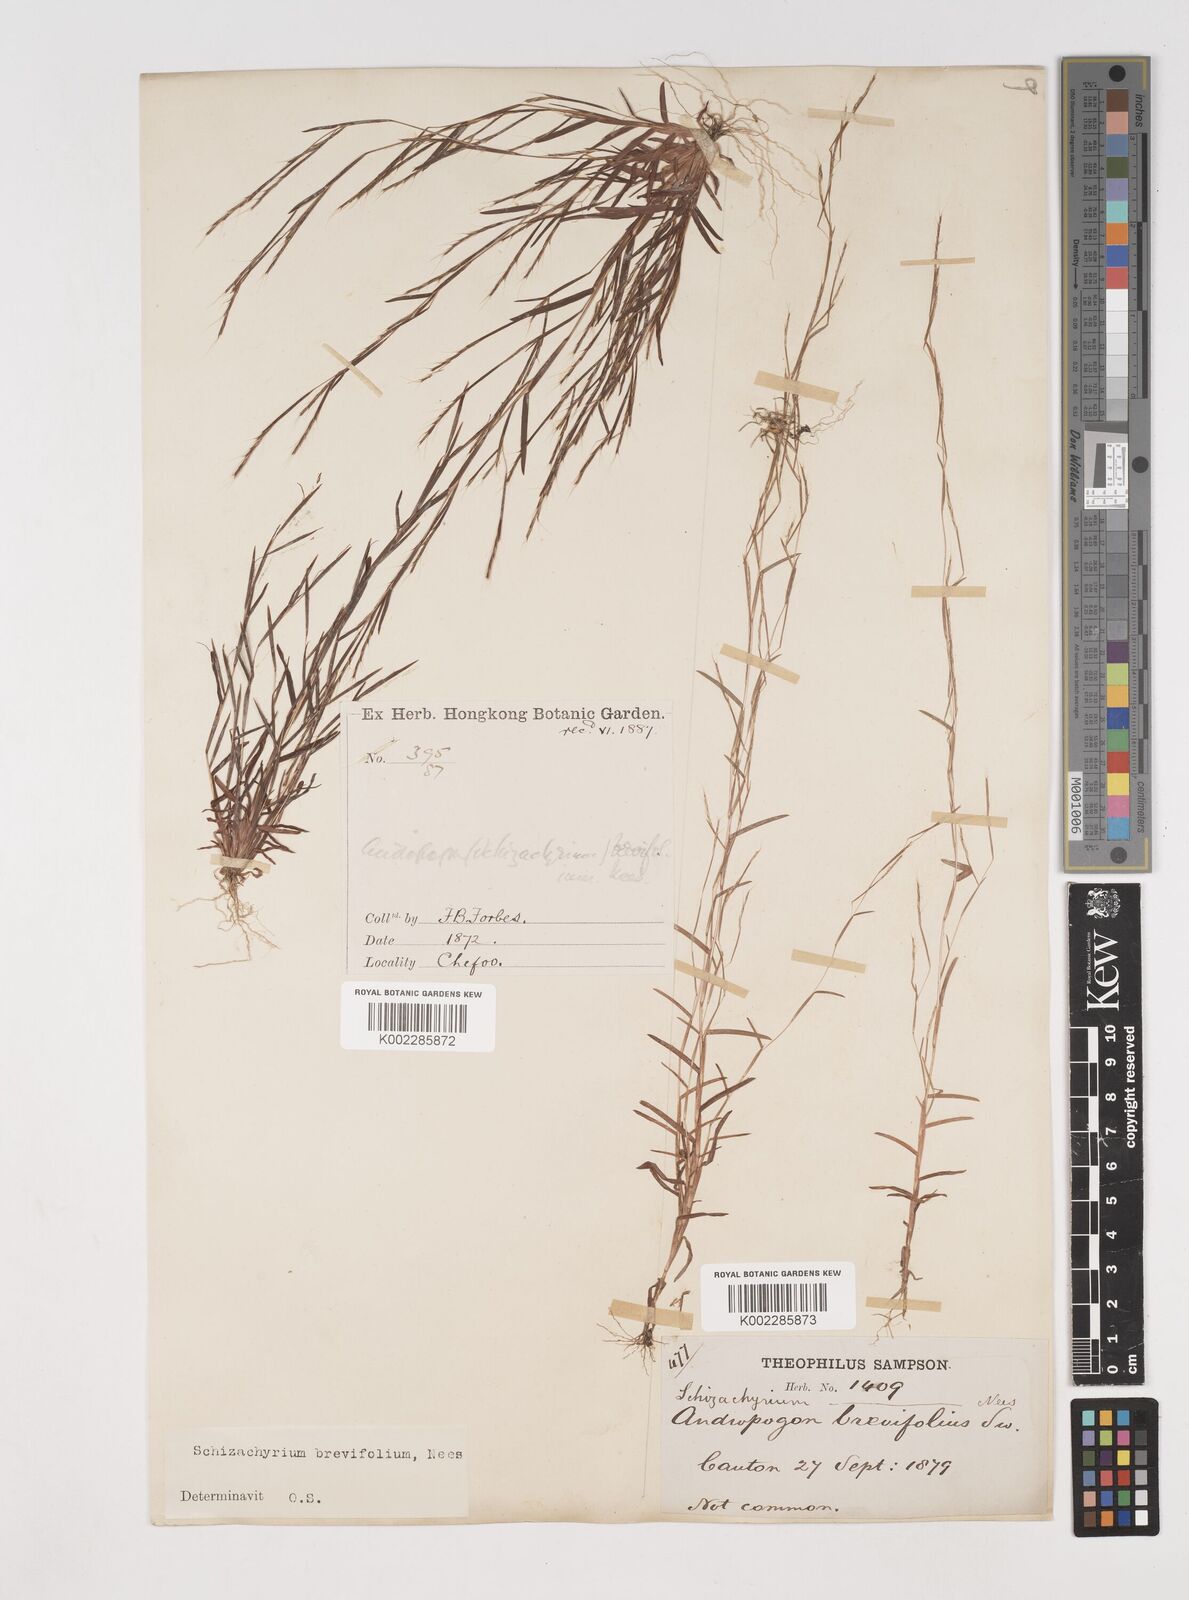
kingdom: Plantae
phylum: Tracheophyta
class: Liliopsida
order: Poales
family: Poaceae
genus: Schizachyrium
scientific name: Schizachyrium brevifolium
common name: Serillo dulce
